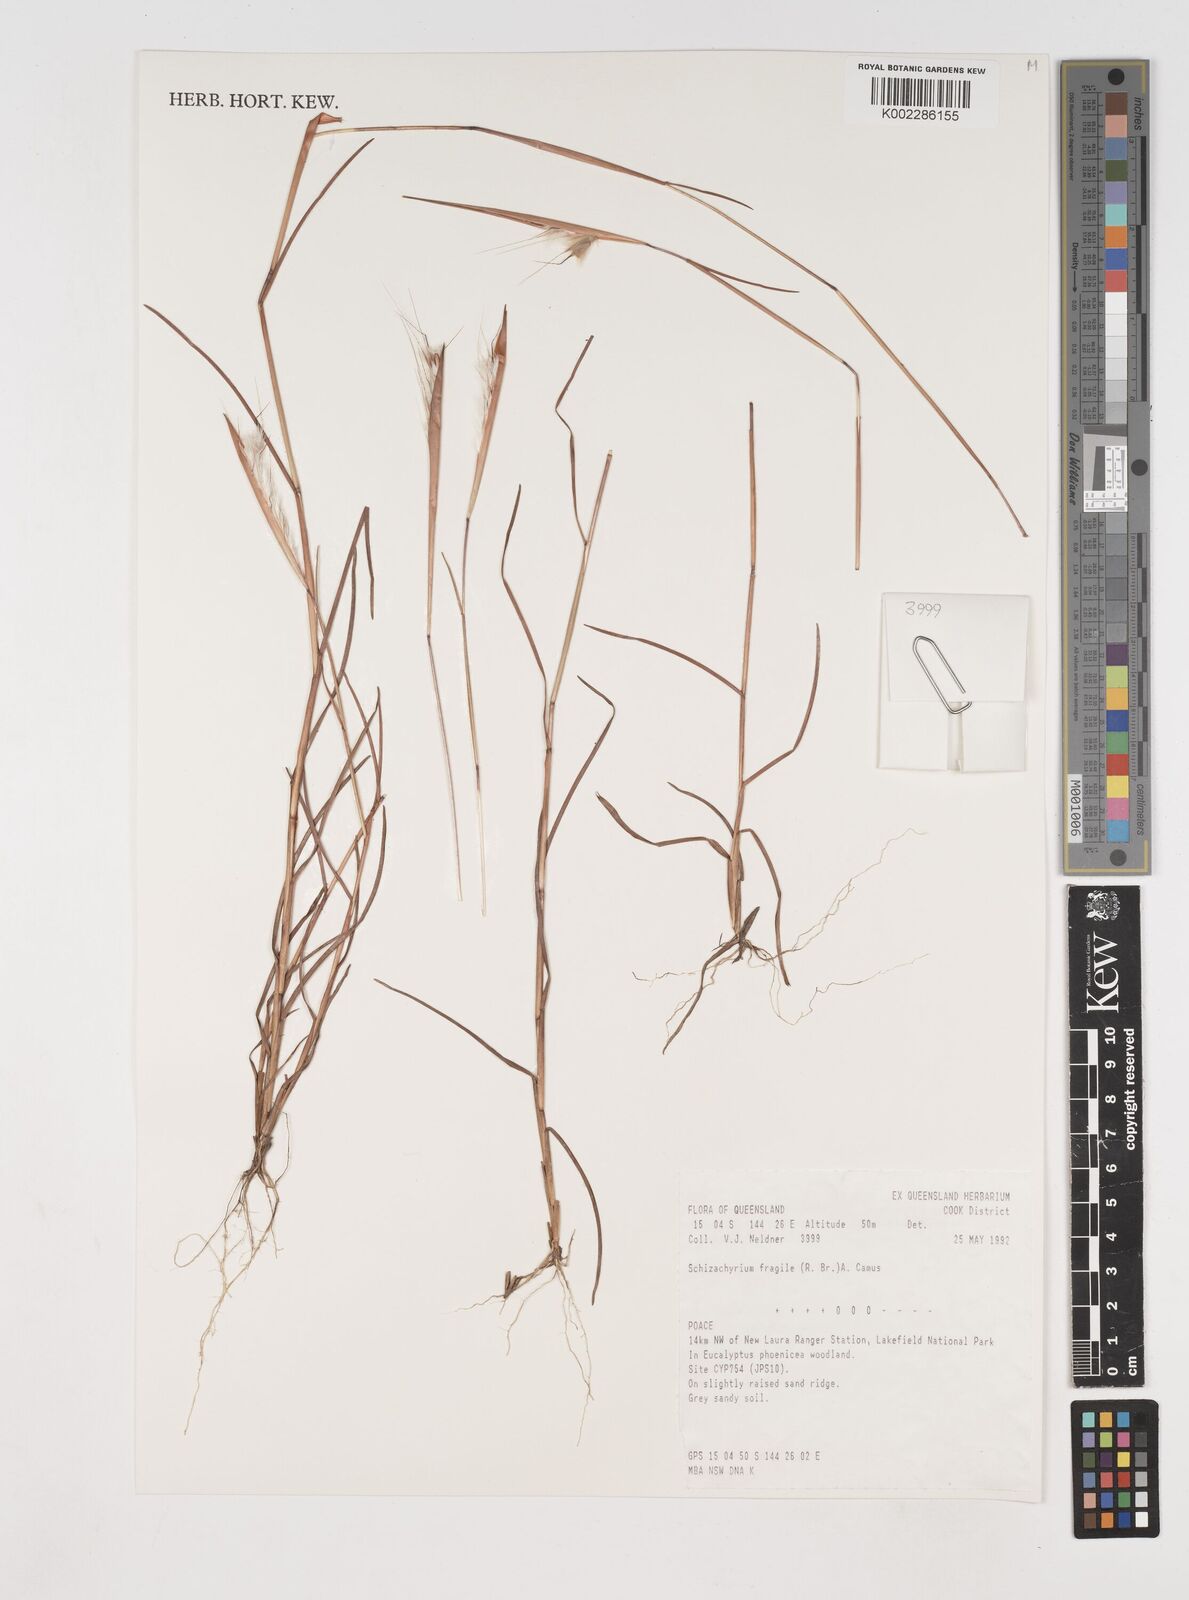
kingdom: Plantae
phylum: Tracheophyta
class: Liliopsida
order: Poales
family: Poaceae
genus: Schizachyrium
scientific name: Schizachyrium fragile
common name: Red spathe grass
